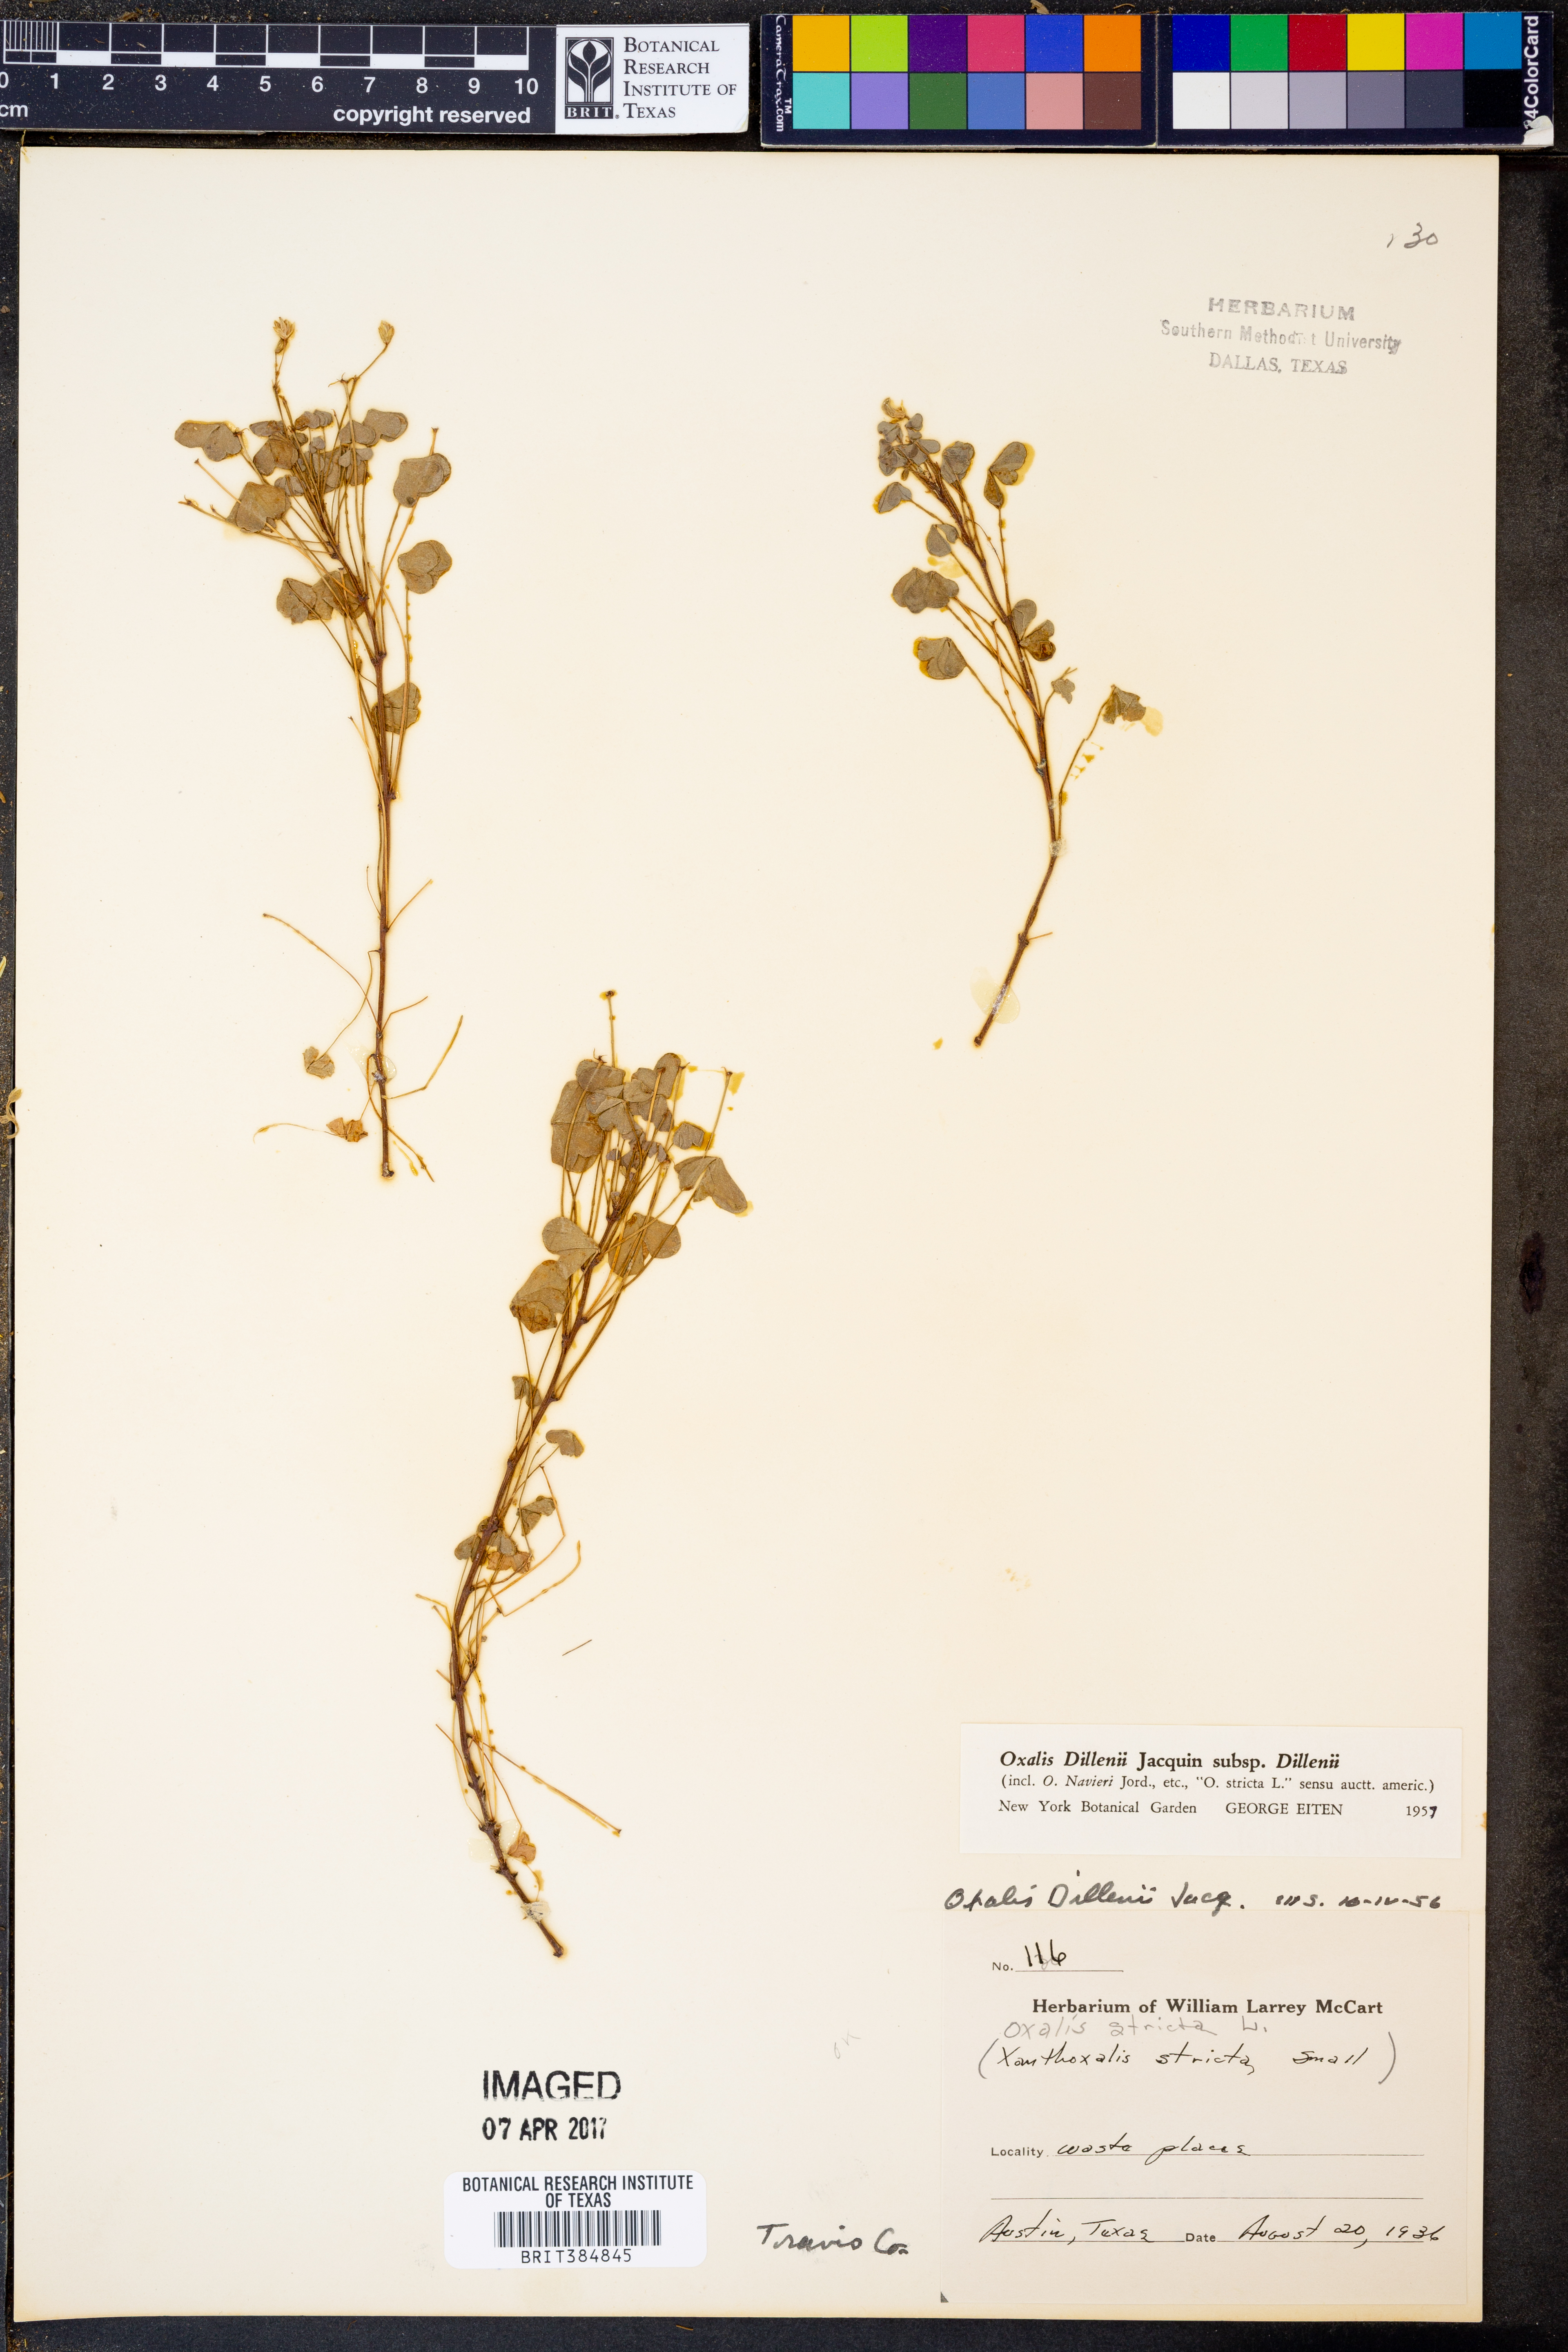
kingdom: Plantae
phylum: Tracheophyta
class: Magnoliopsida
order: Oxalidales
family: Oxalidaceae
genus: Oxalis
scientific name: Oxalis dillenii
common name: Sussex yellow-sorrel
